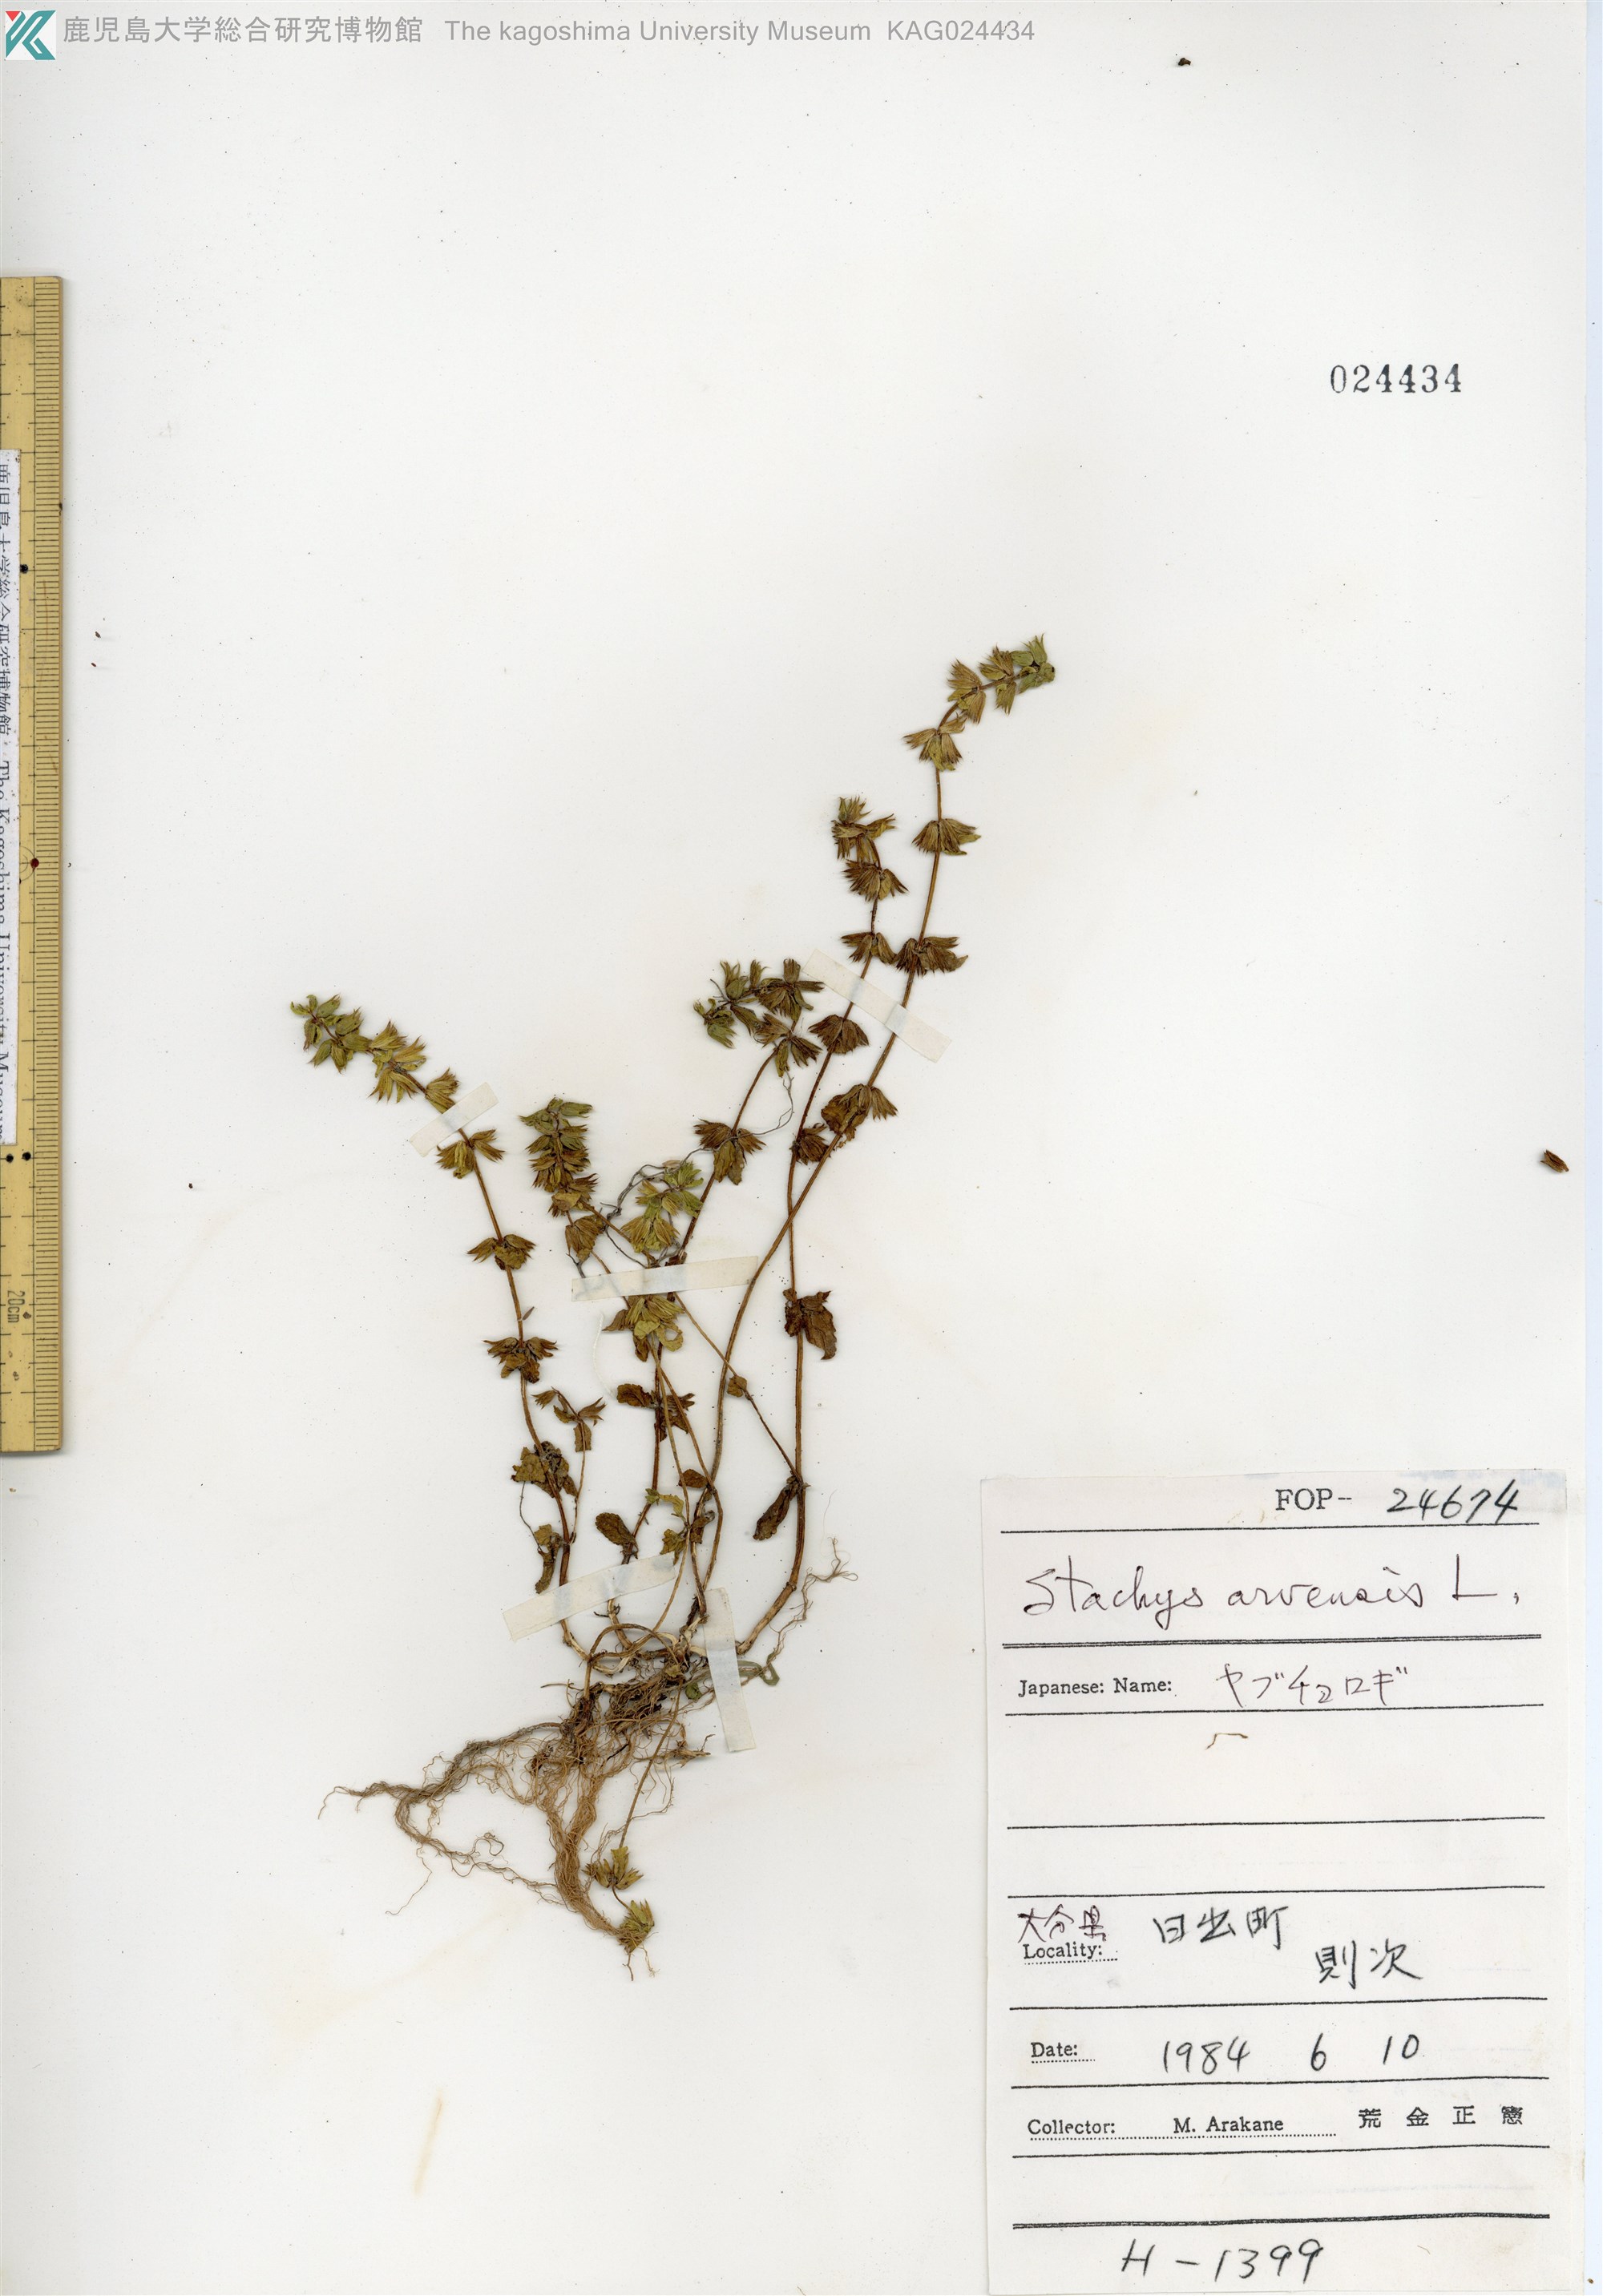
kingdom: Plantae
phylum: Tracheophyta
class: Magnoliopsida
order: Lamiales
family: Lamiaceae
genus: Stachys
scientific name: Stachys arvensis
